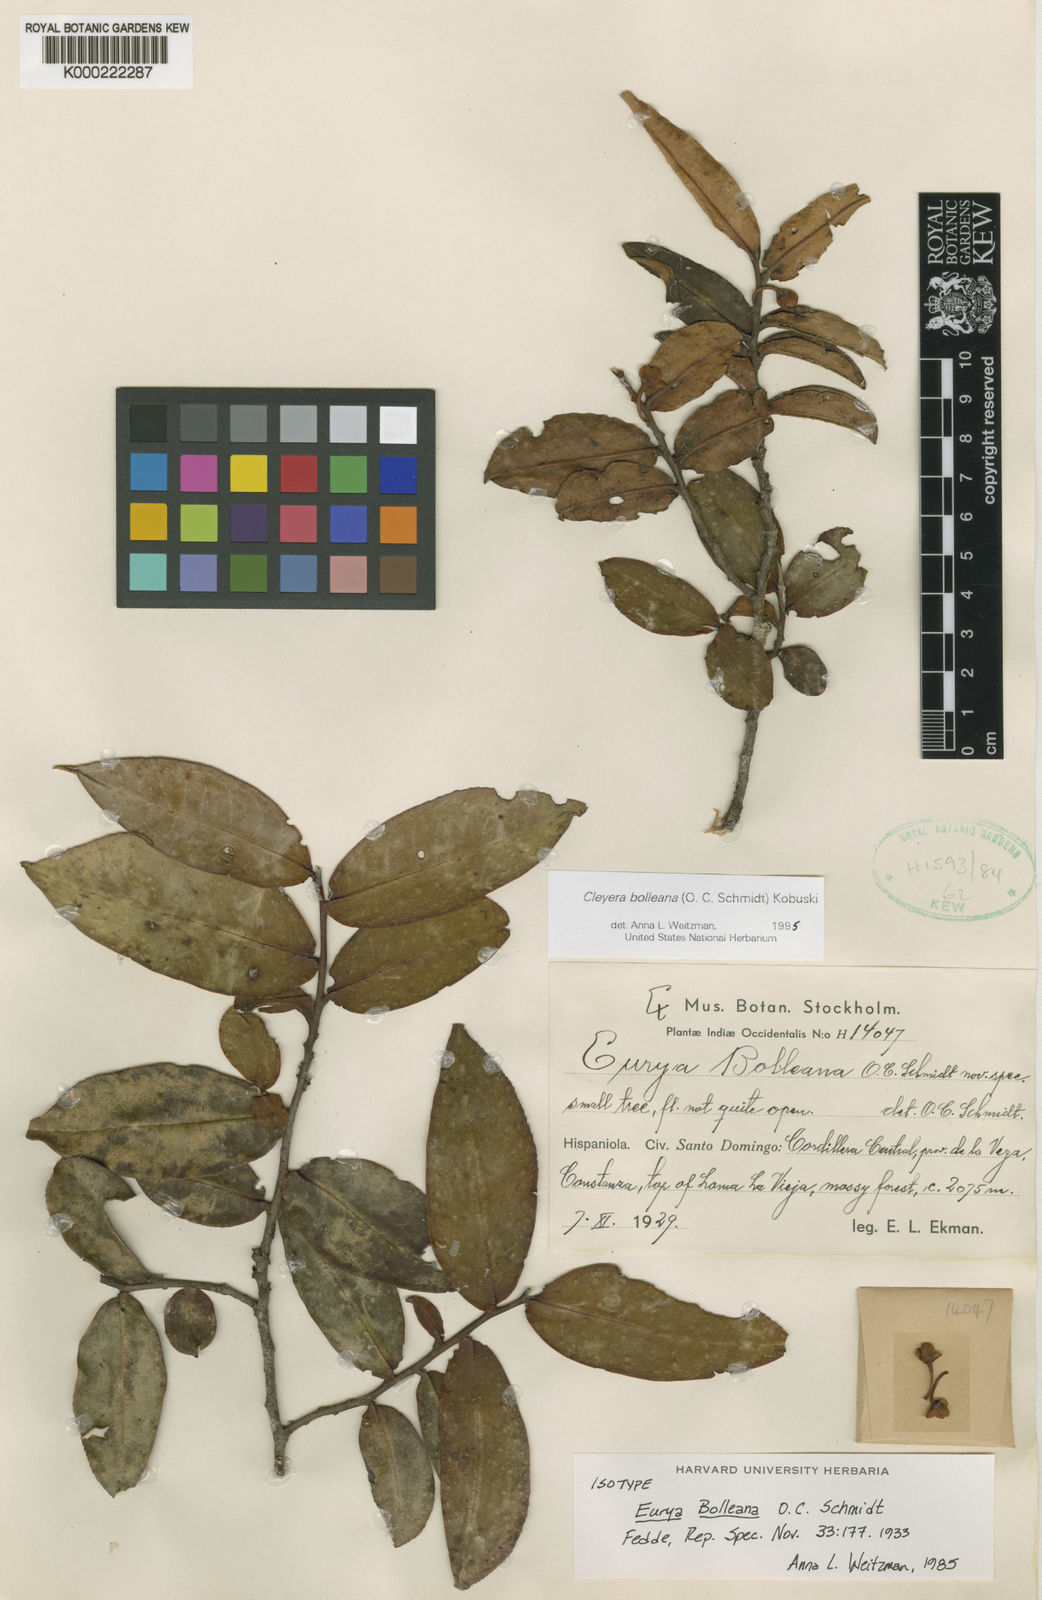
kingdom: Plantae
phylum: Tracheophyta
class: Magnoliopsida
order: Ericales
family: Pentaphylacaceae
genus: Cleyera
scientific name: Cleyera bolleana
